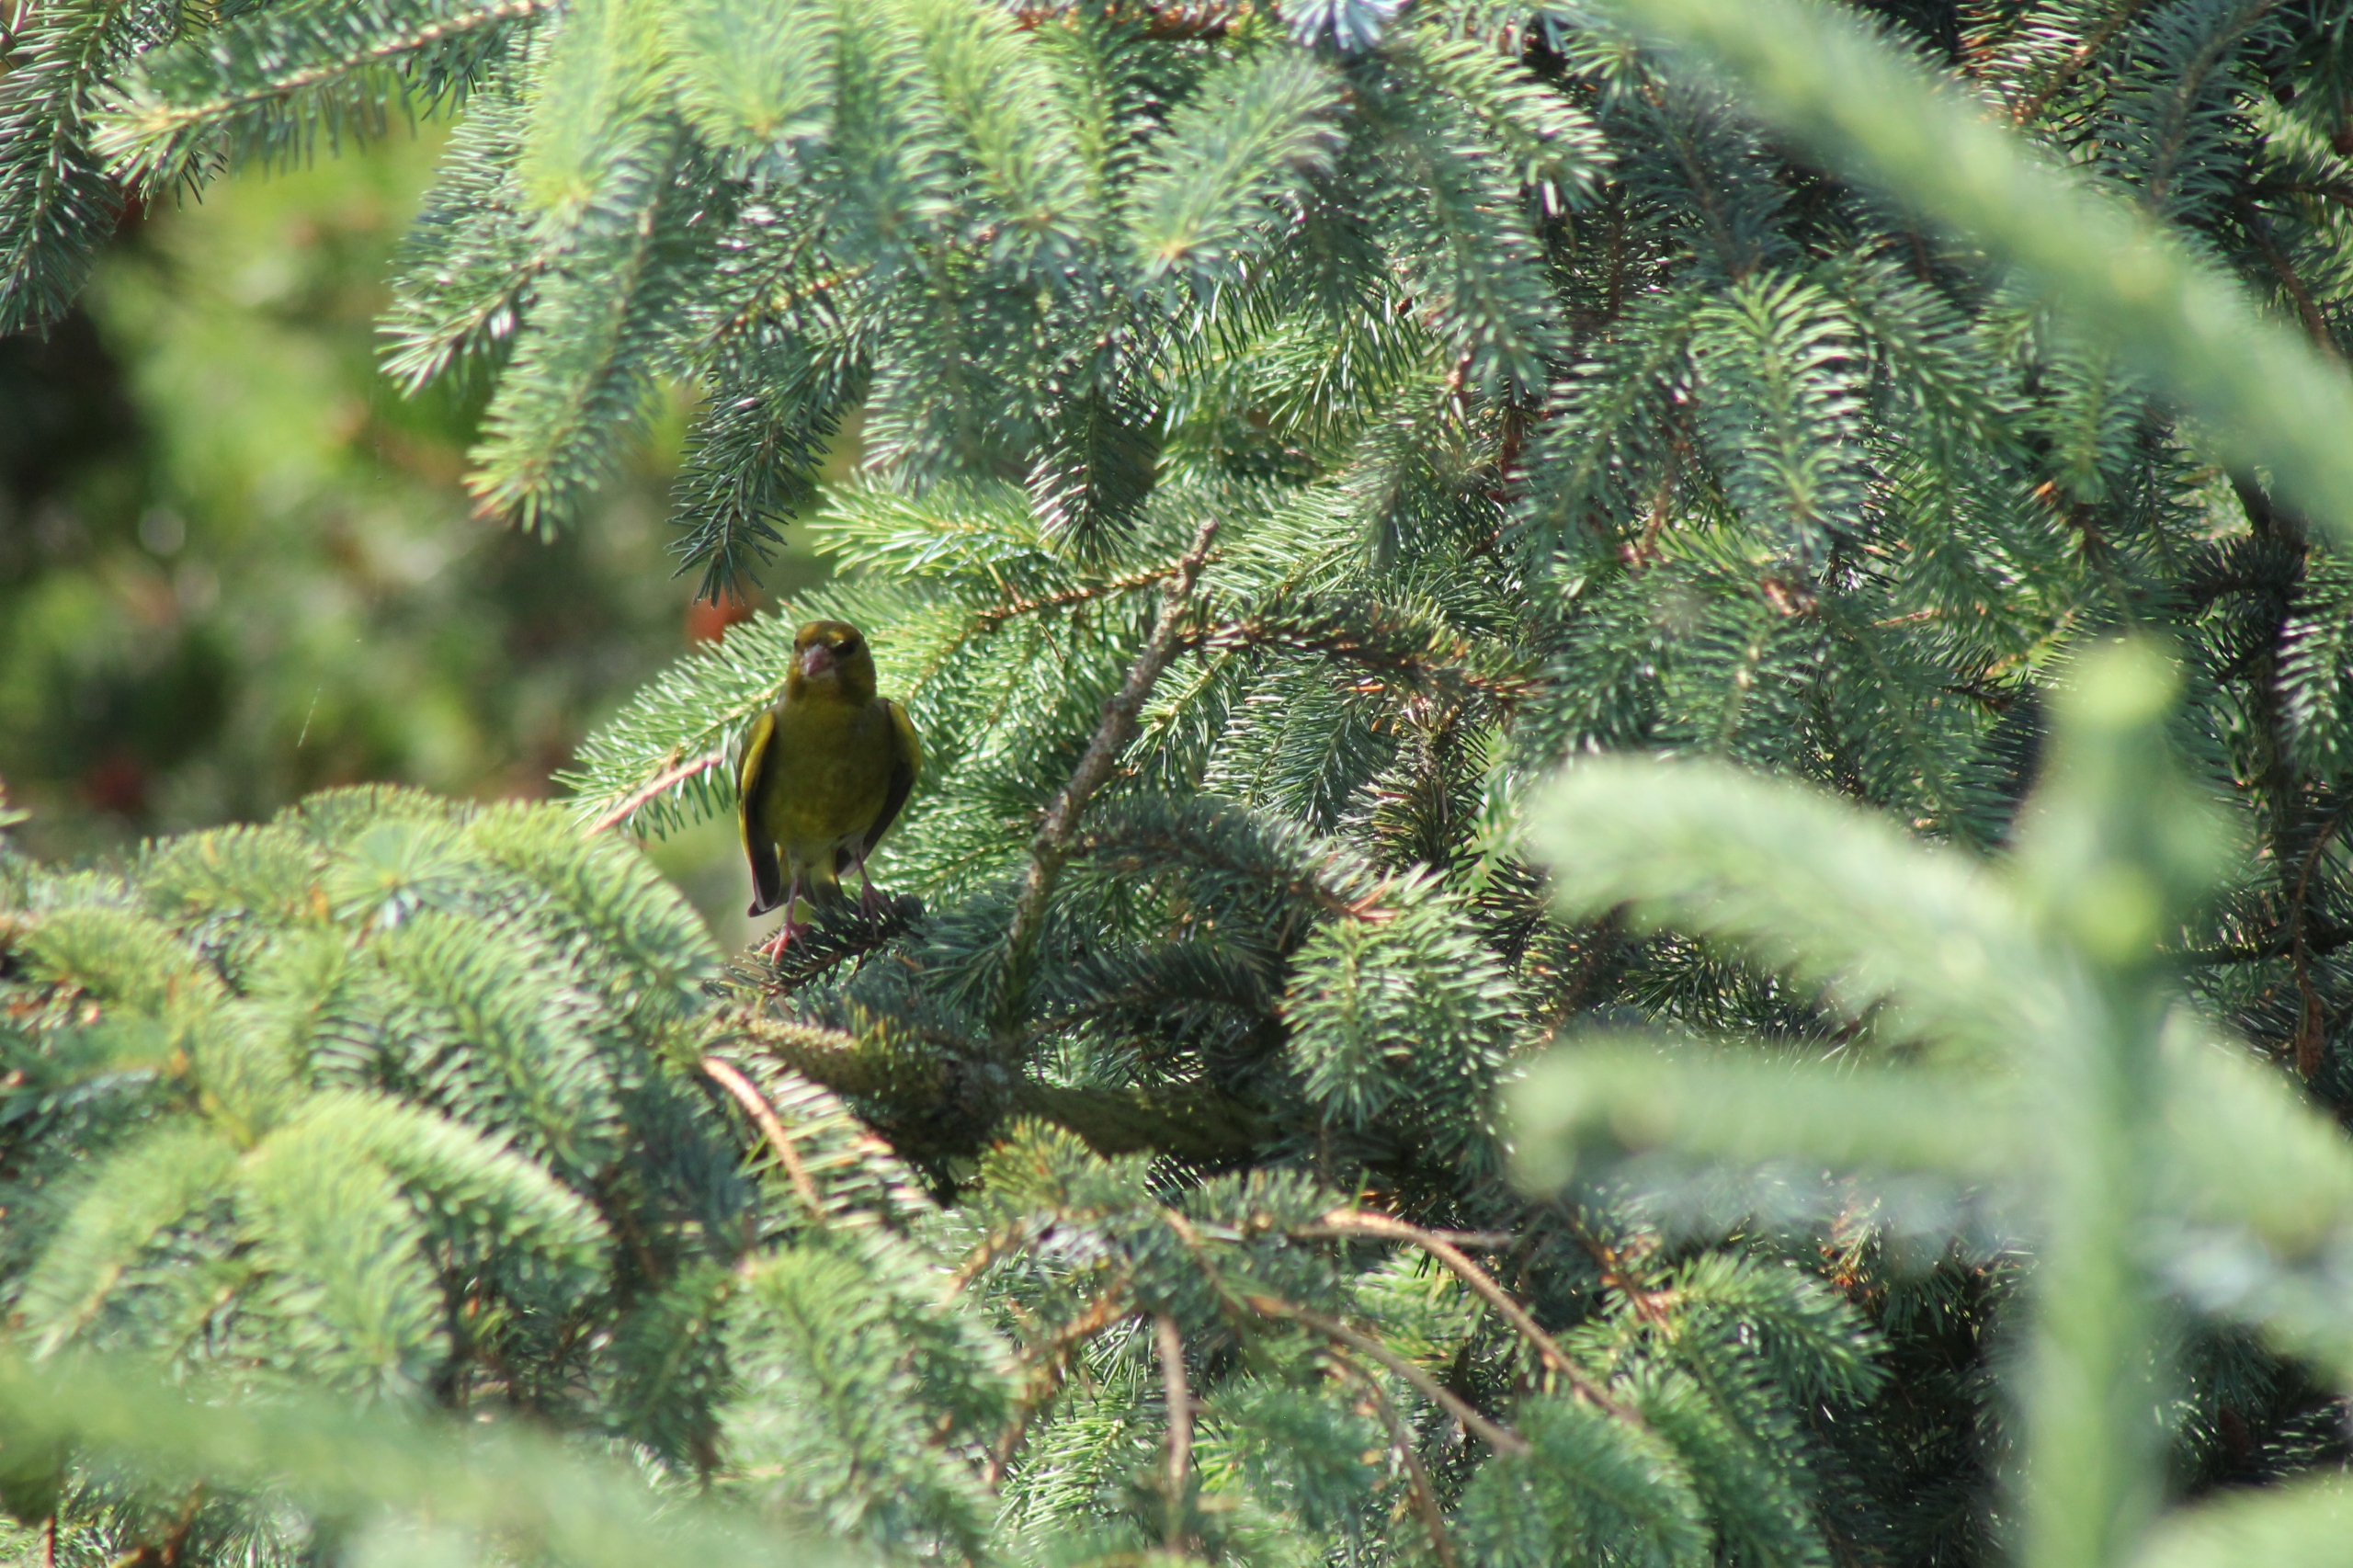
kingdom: Plantae
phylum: Tracheophyta
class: Liliopsida
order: Poales
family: Poaceae
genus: Chloris
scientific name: Chloris chloris
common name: Grønirisk
